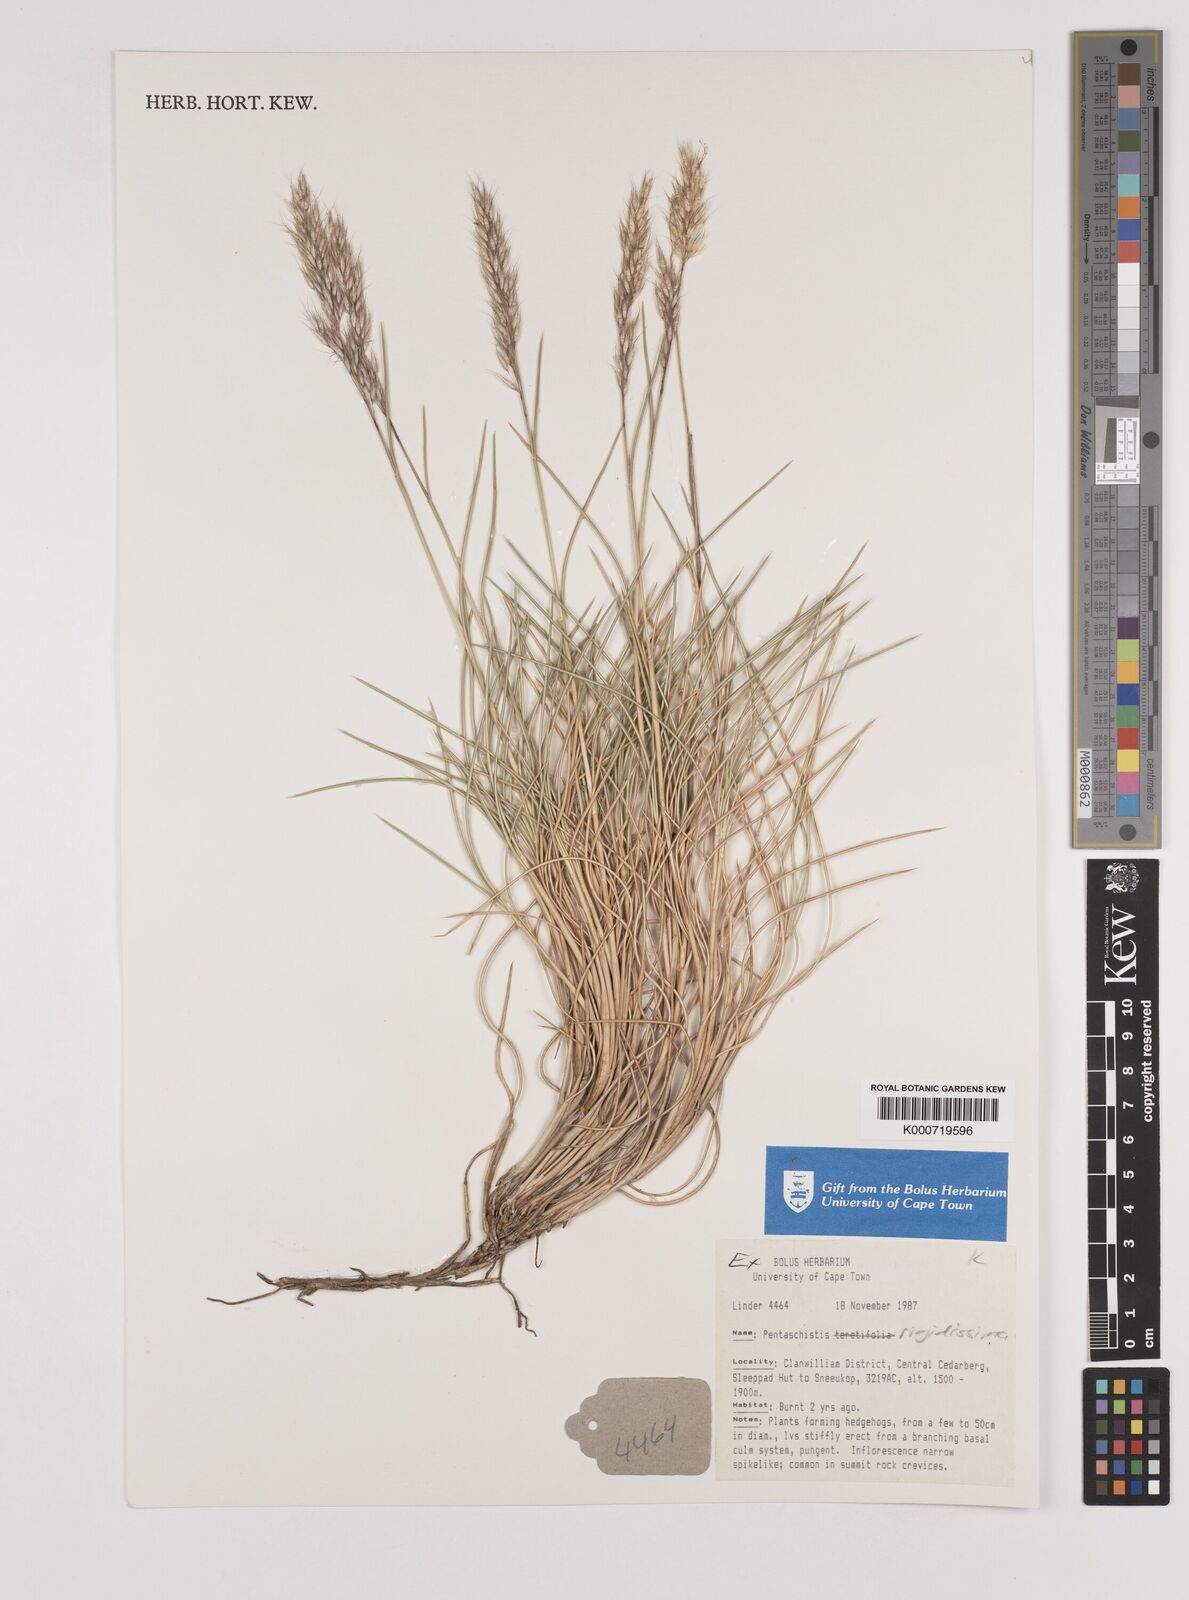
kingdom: Plantae
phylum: Tracheophyta
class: Liliopsida
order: Poales
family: Poaceae
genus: Pentameris
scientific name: Pentameris rigidissima
